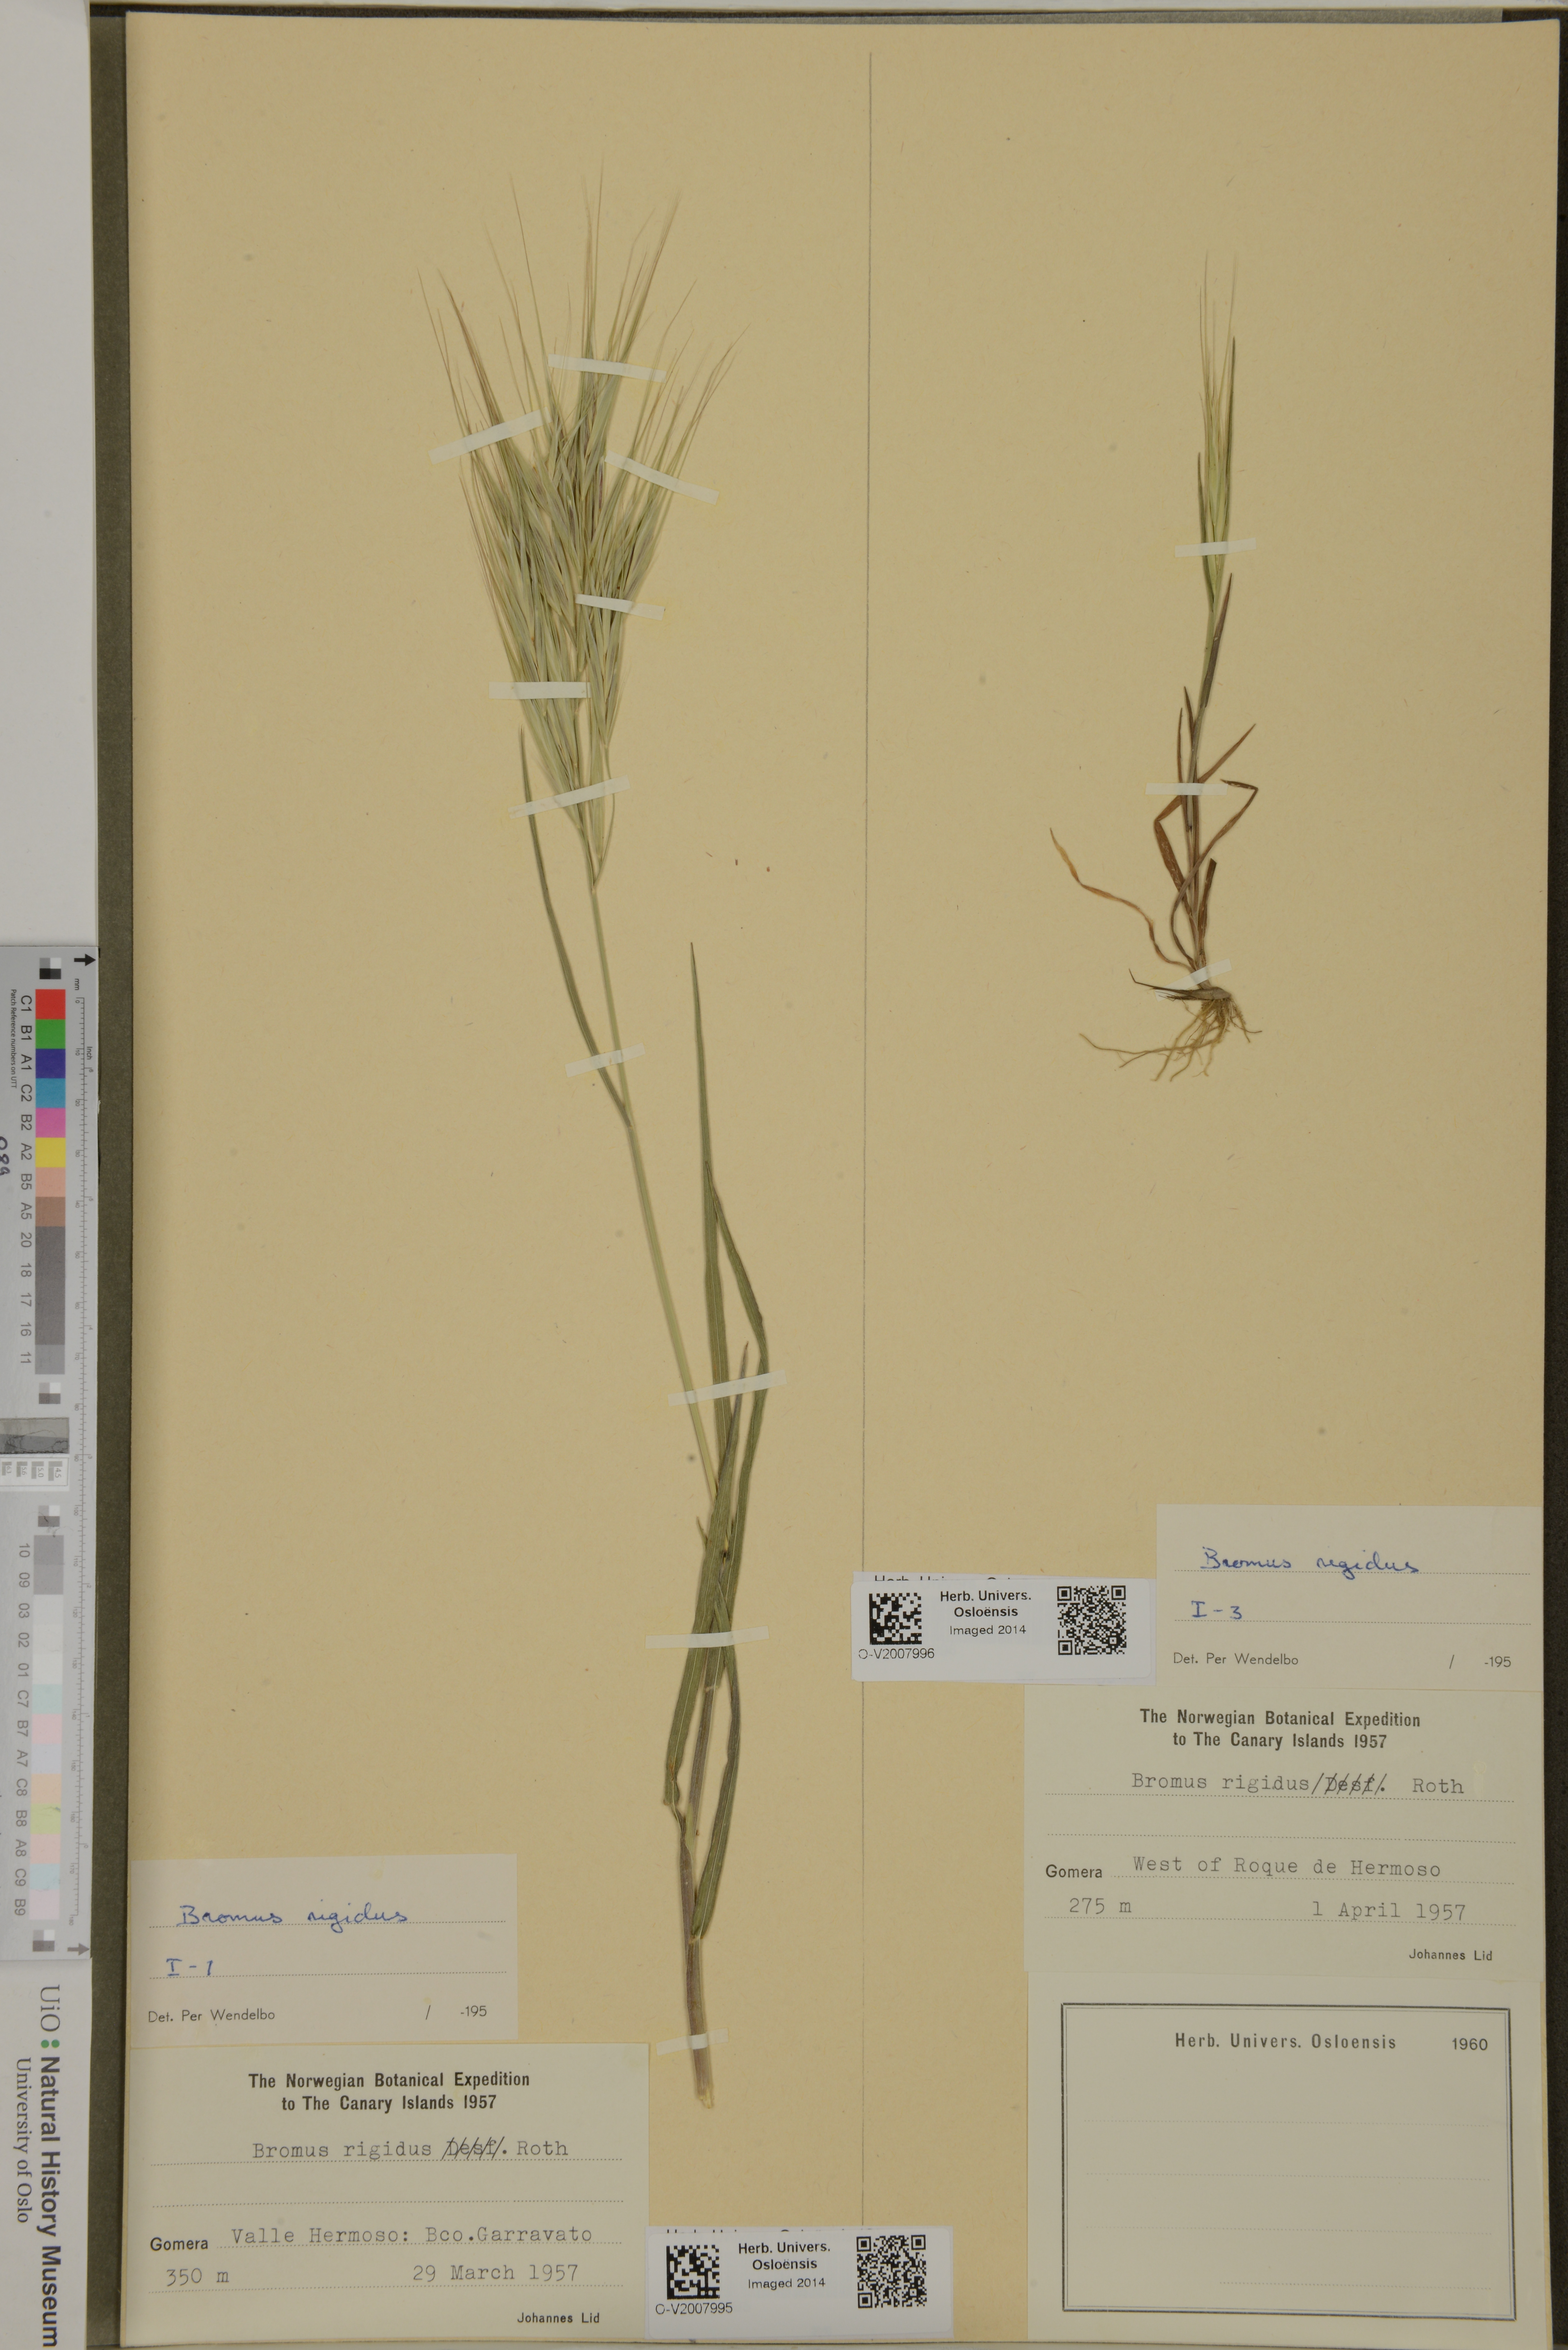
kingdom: Plantae
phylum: Tracheophyta
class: Liliopsida
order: Poales
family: Poaceae
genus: Bromus
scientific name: Bromus rigidus
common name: Ripgut brome
